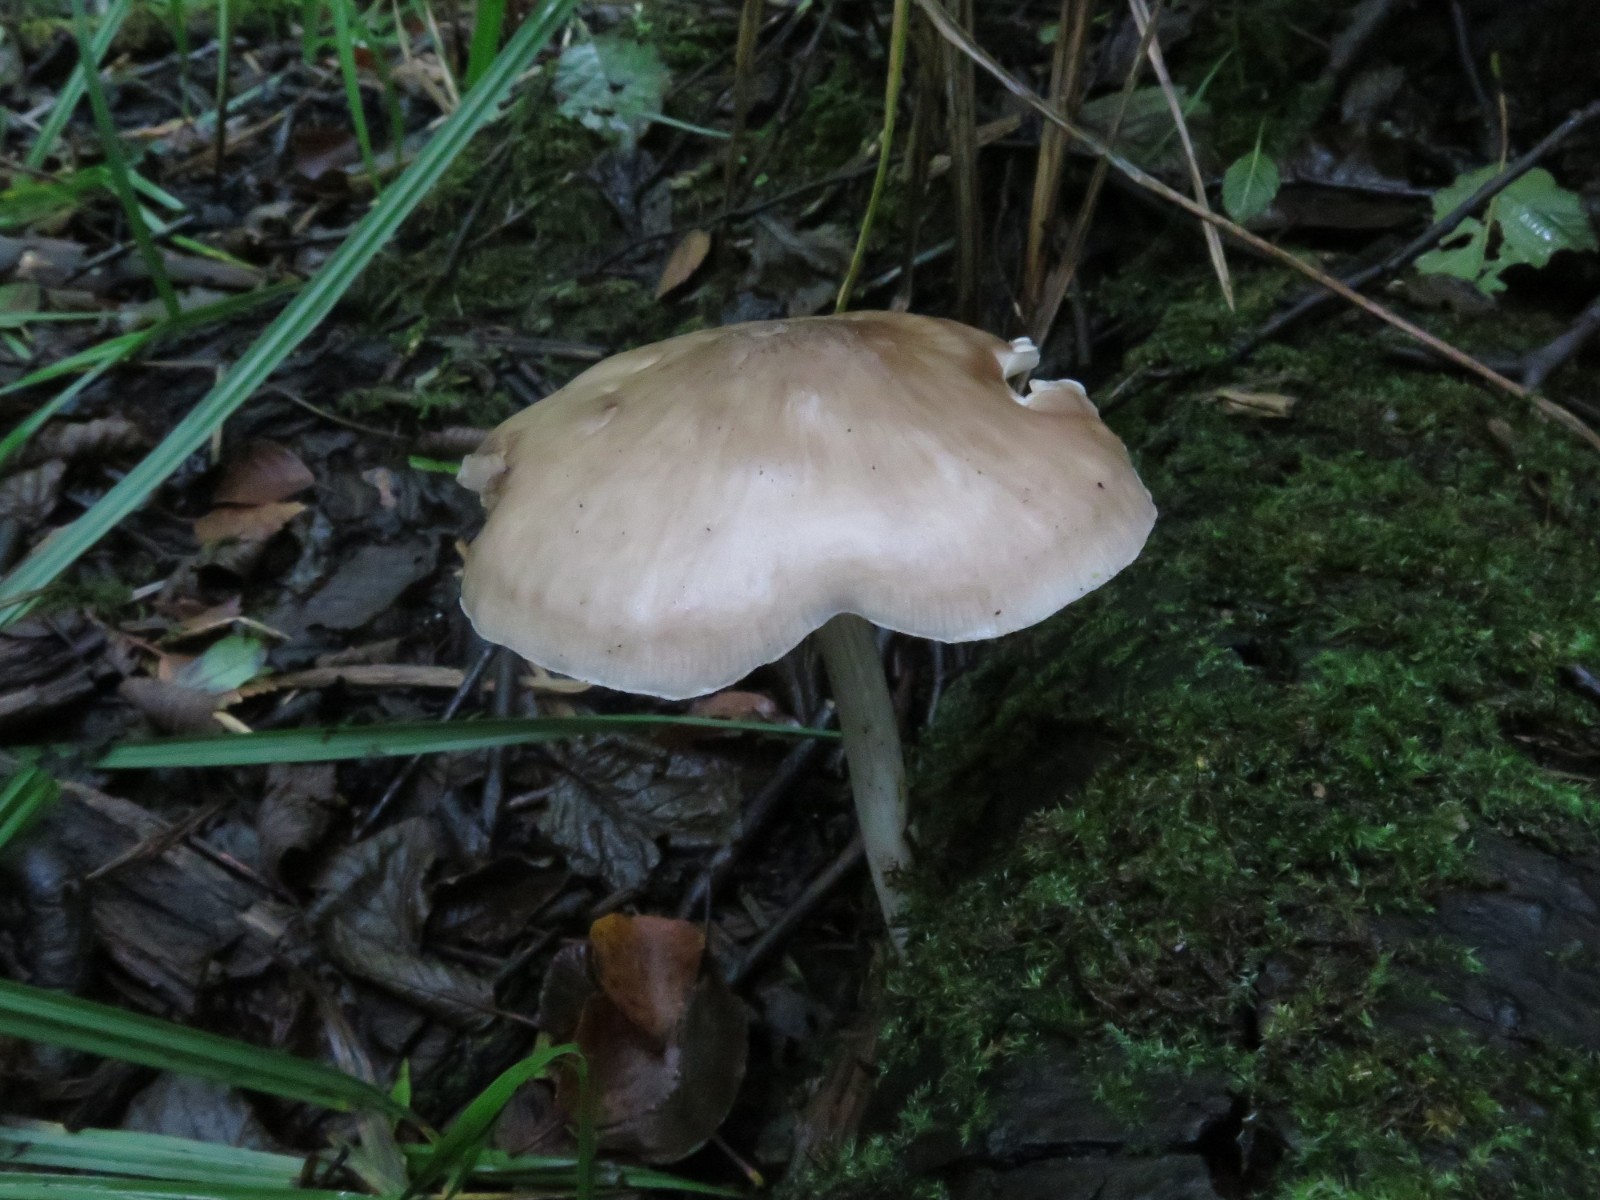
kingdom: Fungi
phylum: Basidiomycota
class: Agaricomycetes
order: Agaricales
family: Pluteaceae
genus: Pluteus
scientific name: Pluteus salicinus
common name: stiv skærmhat
